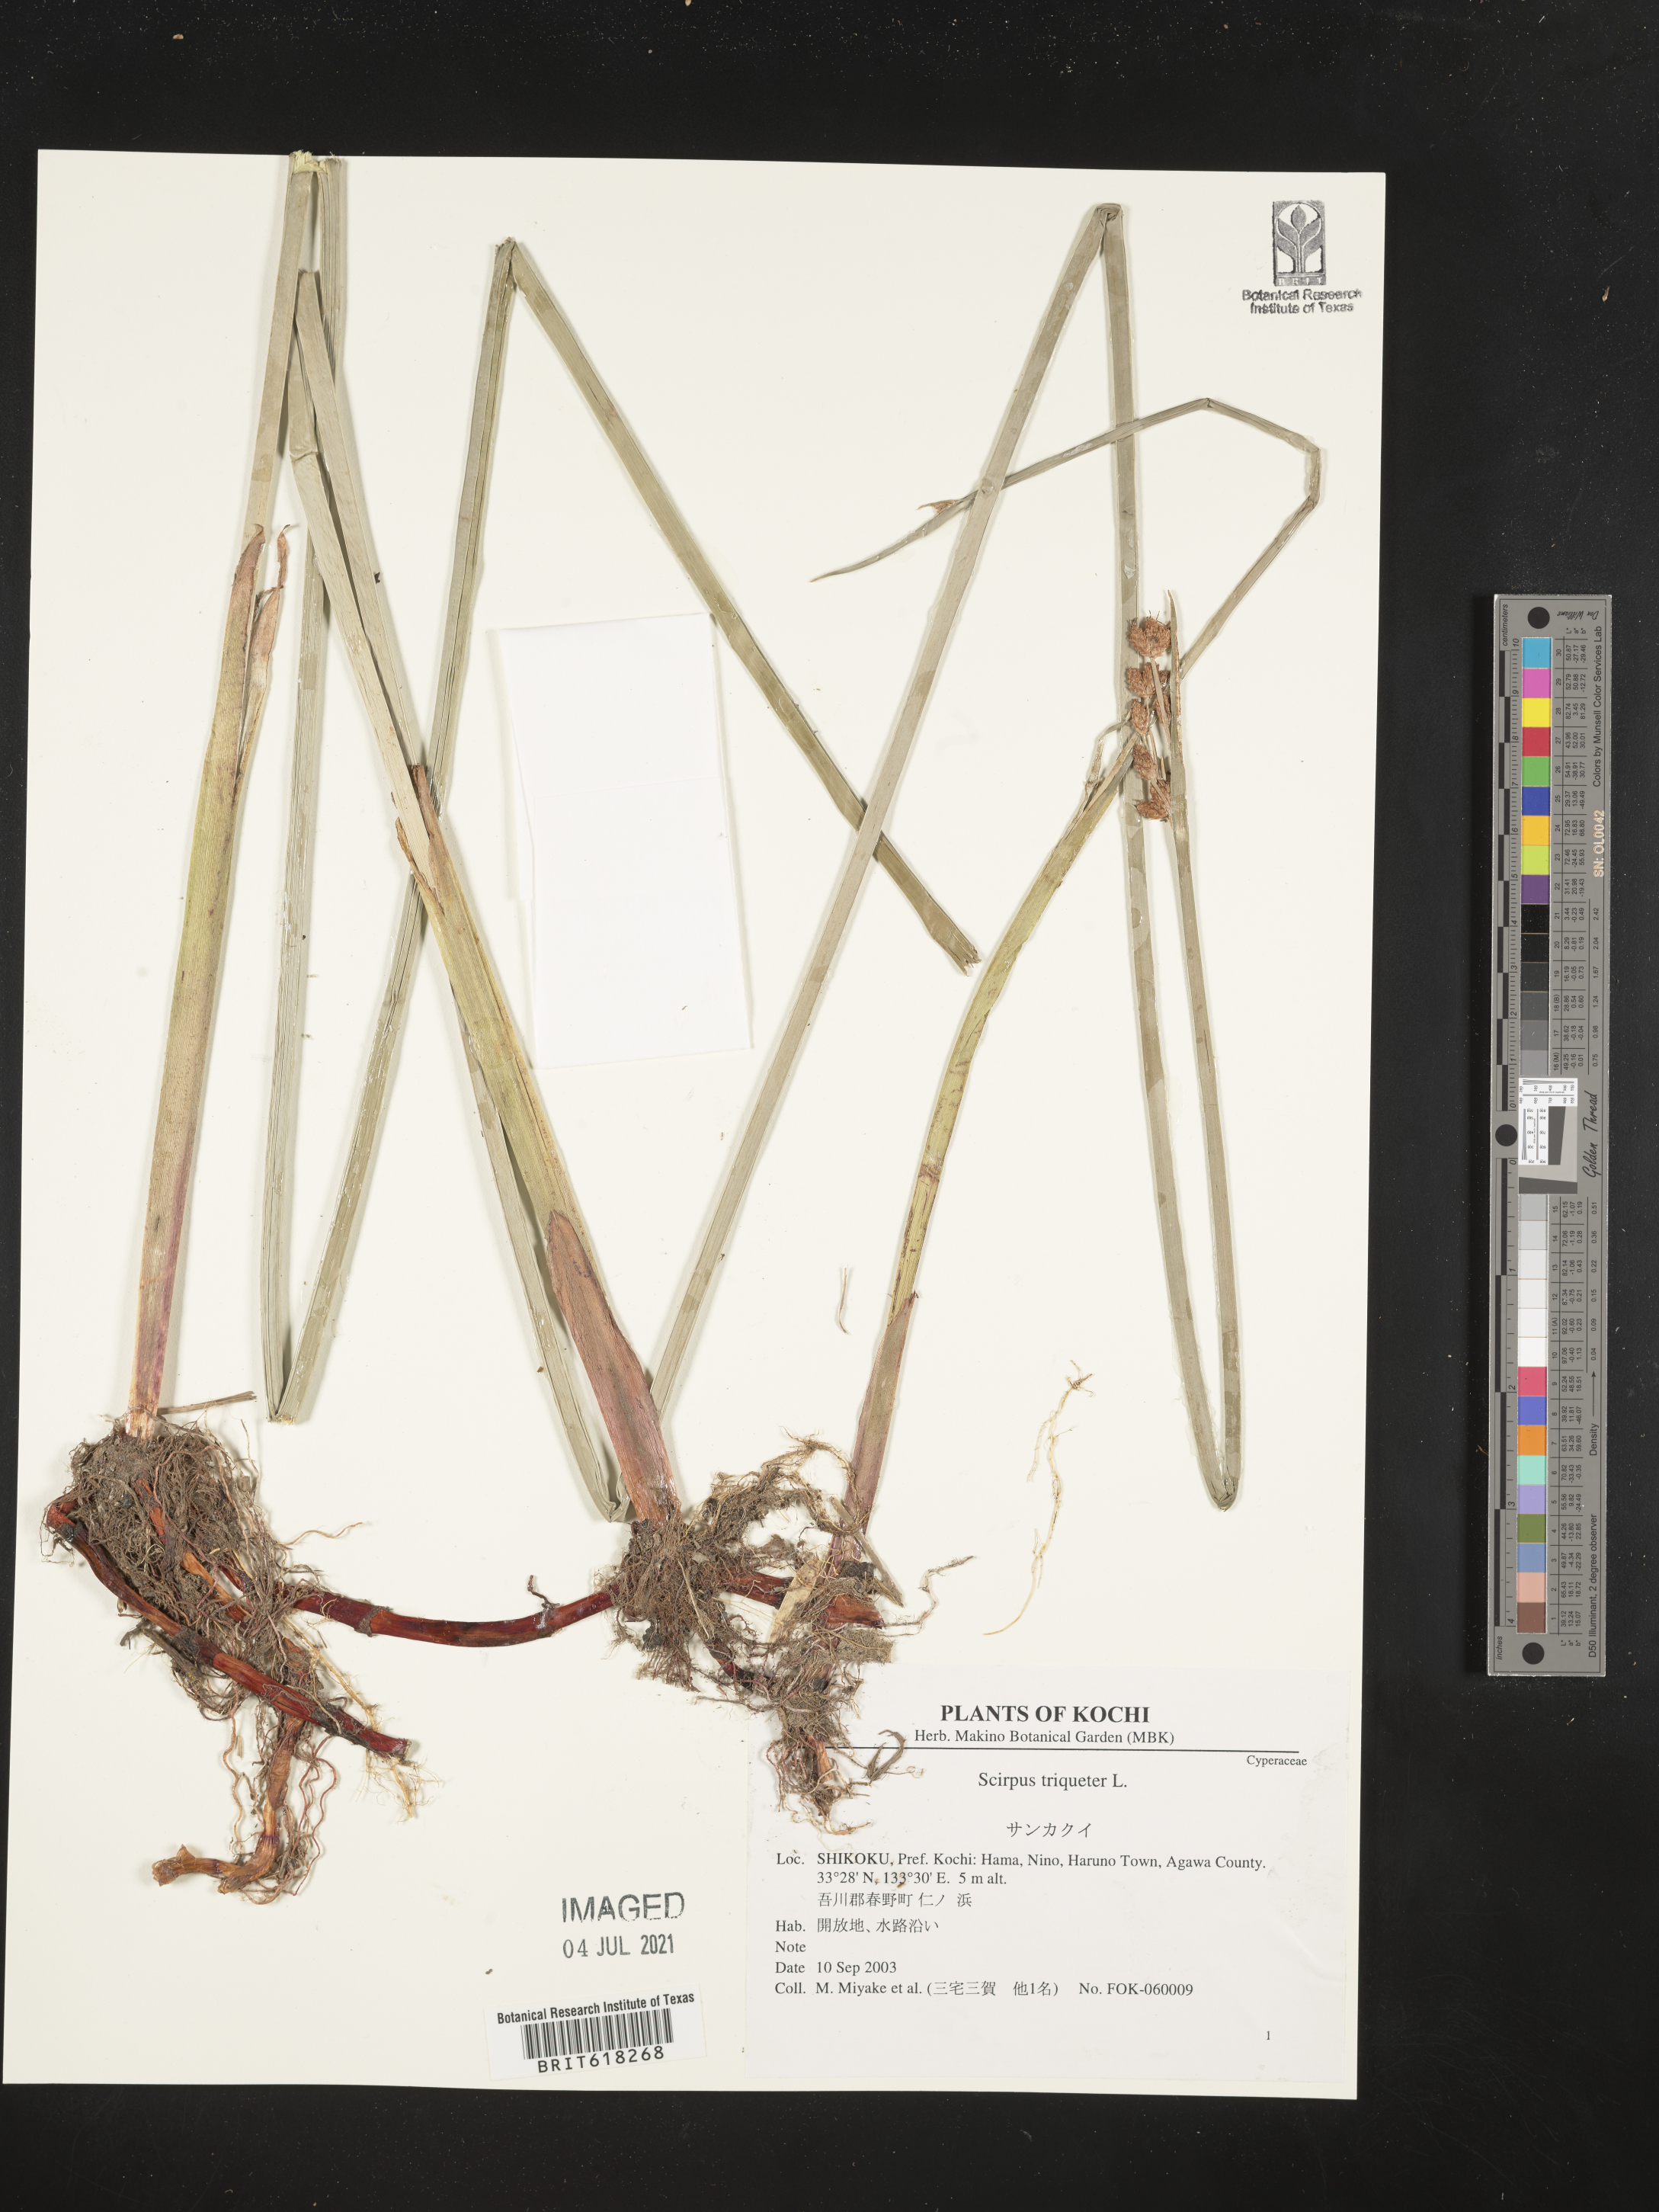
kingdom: Plantae
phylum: Tracheophyta
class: Liliopsida
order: Poales
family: Cyperaceae
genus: Schoenoplectus
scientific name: Schoenoplectus triqueter
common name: Triangular club-rush
